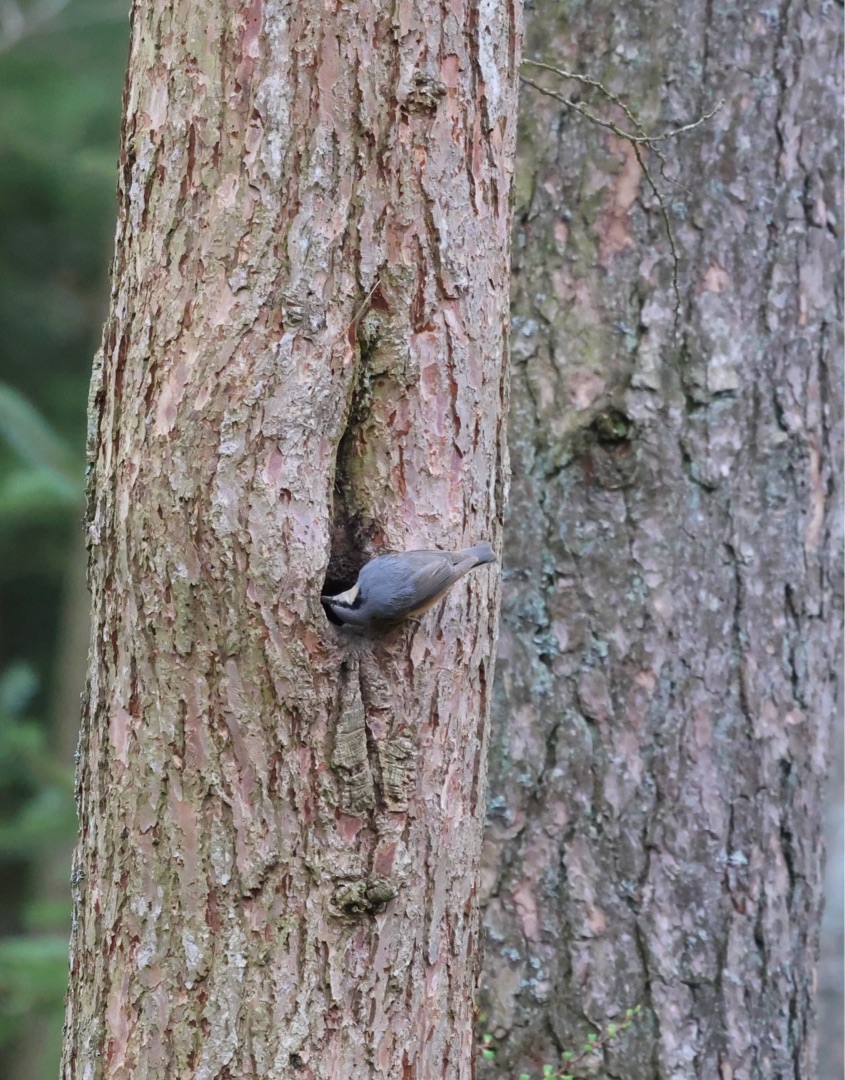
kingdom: Animalia
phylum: Chordata
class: Aves
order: Passeriformes
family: Sittidae
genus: Sitta
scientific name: Sitta europaea
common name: Spætmejse
